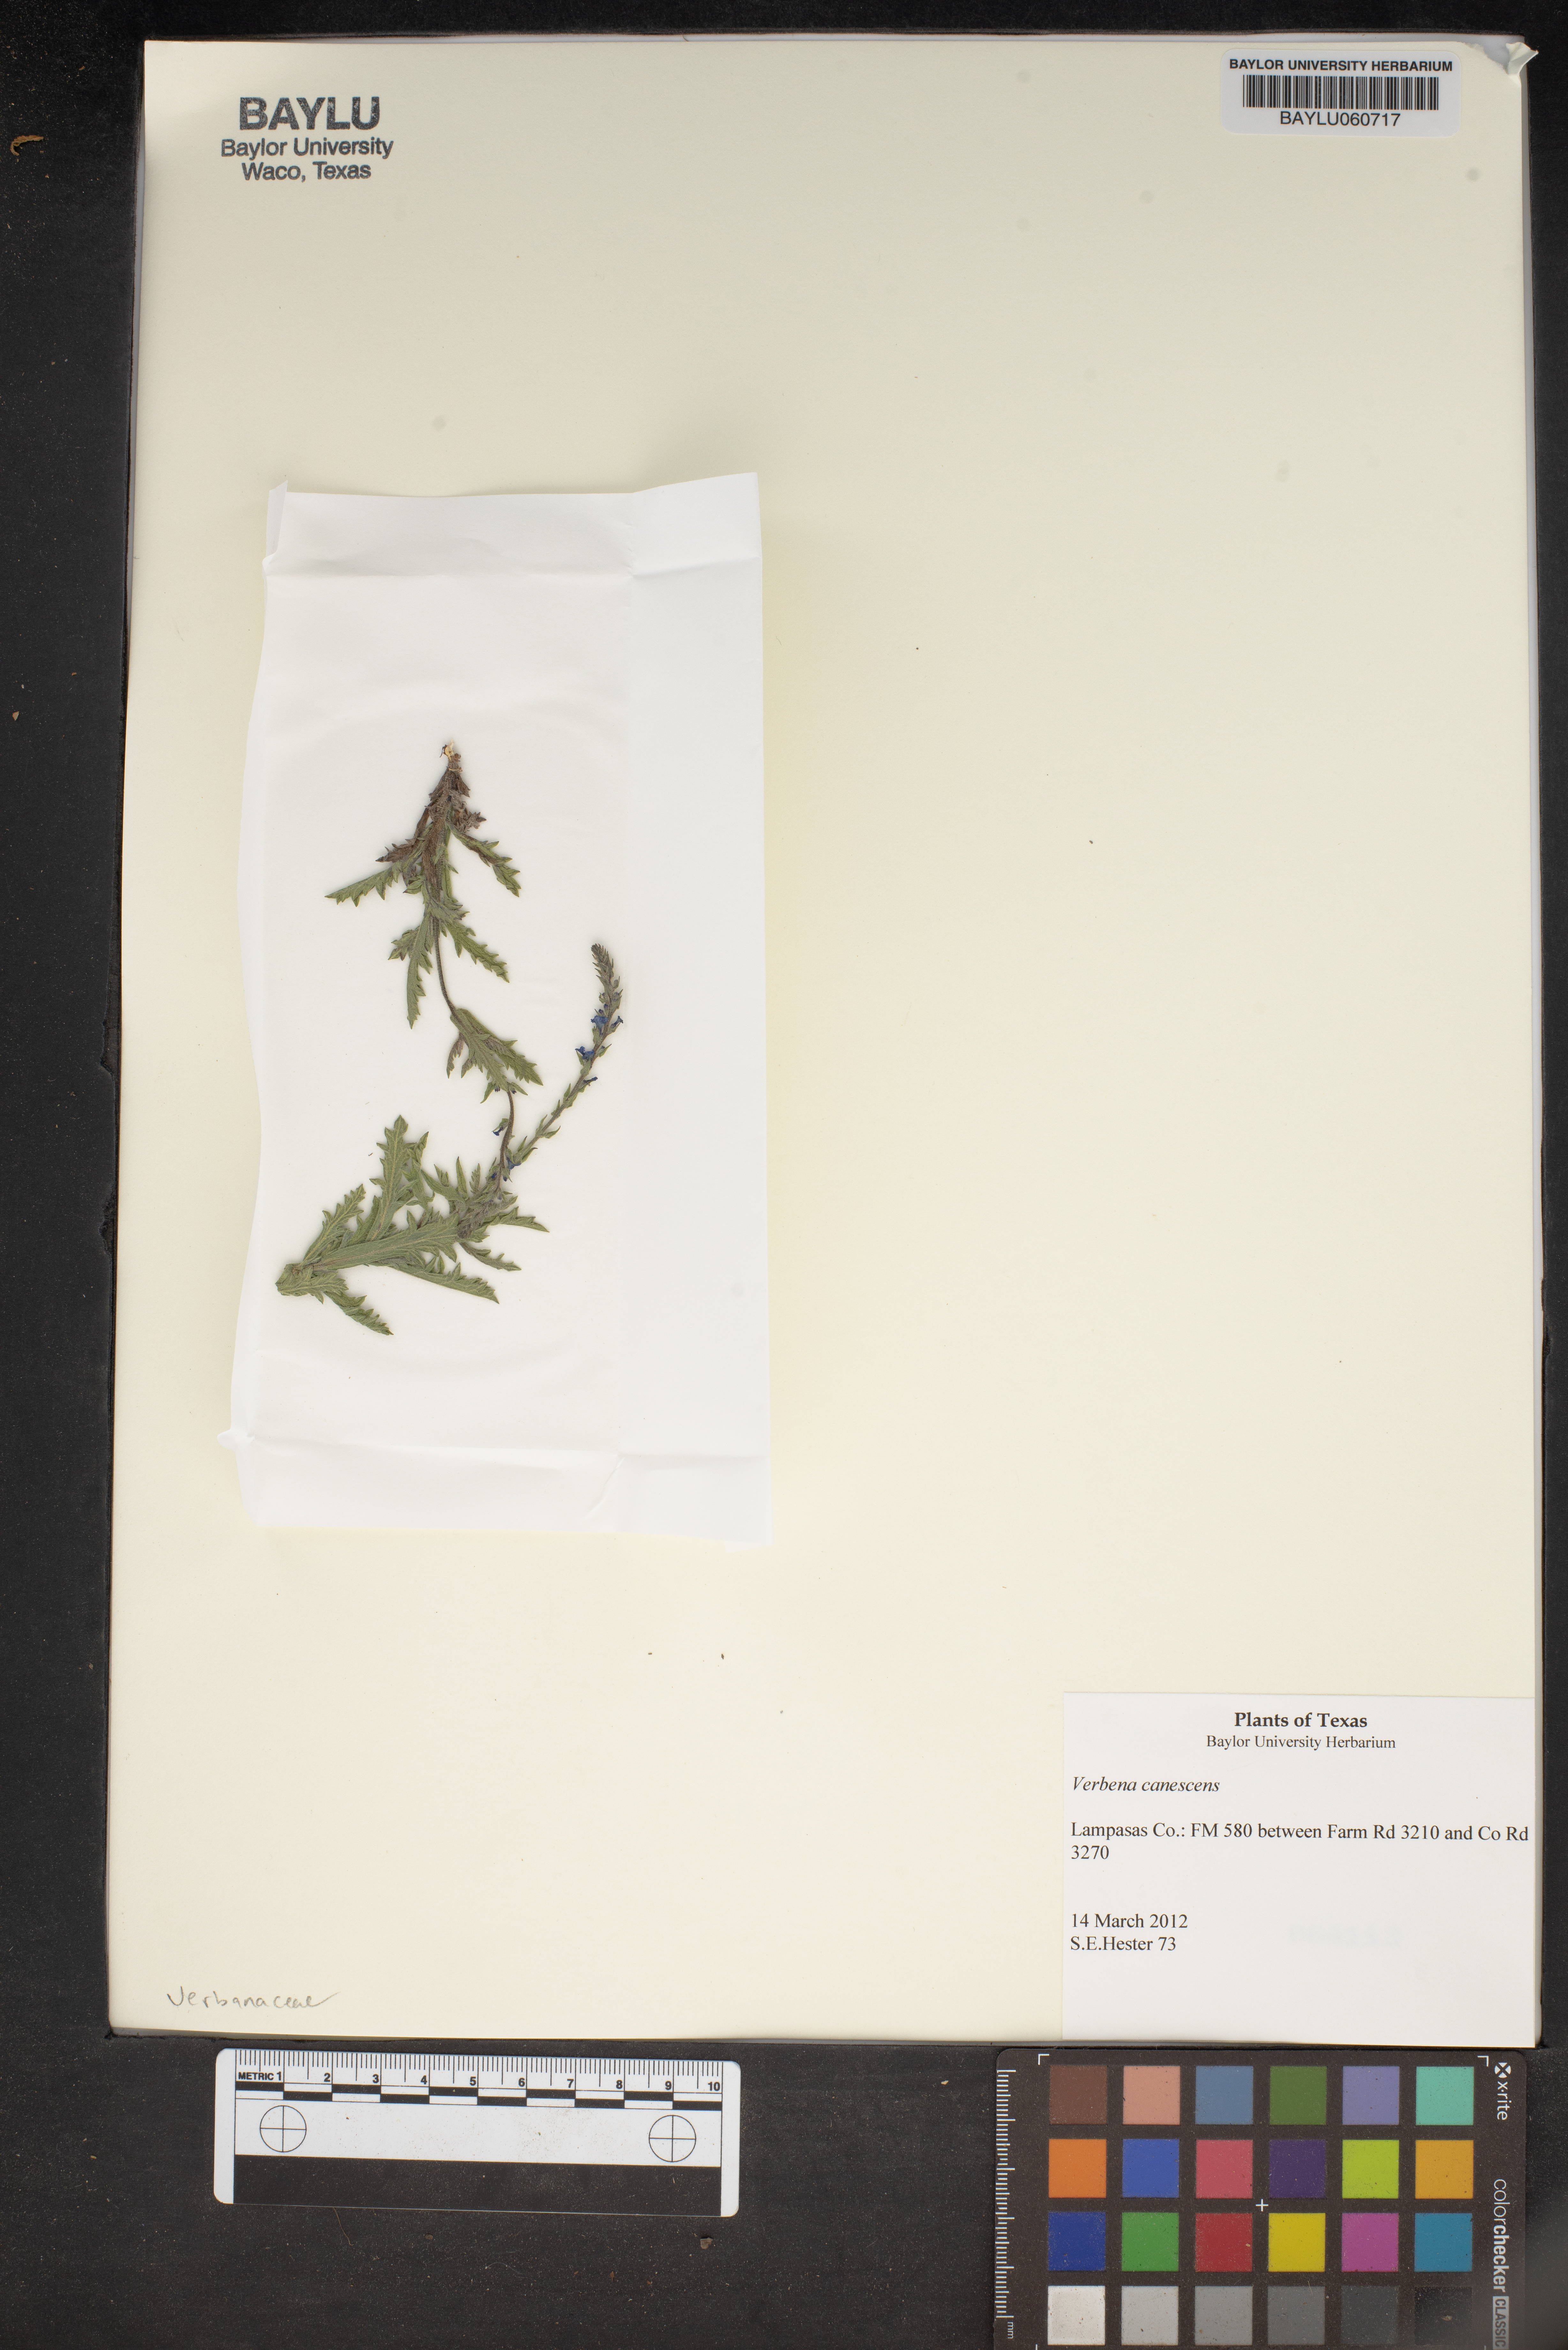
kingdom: Plantae
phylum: Tracheophyta
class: Magnoliopsida
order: Lamiales
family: Verbenaceae
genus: Verbena
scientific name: Verbena canescens
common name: Gray vervain
